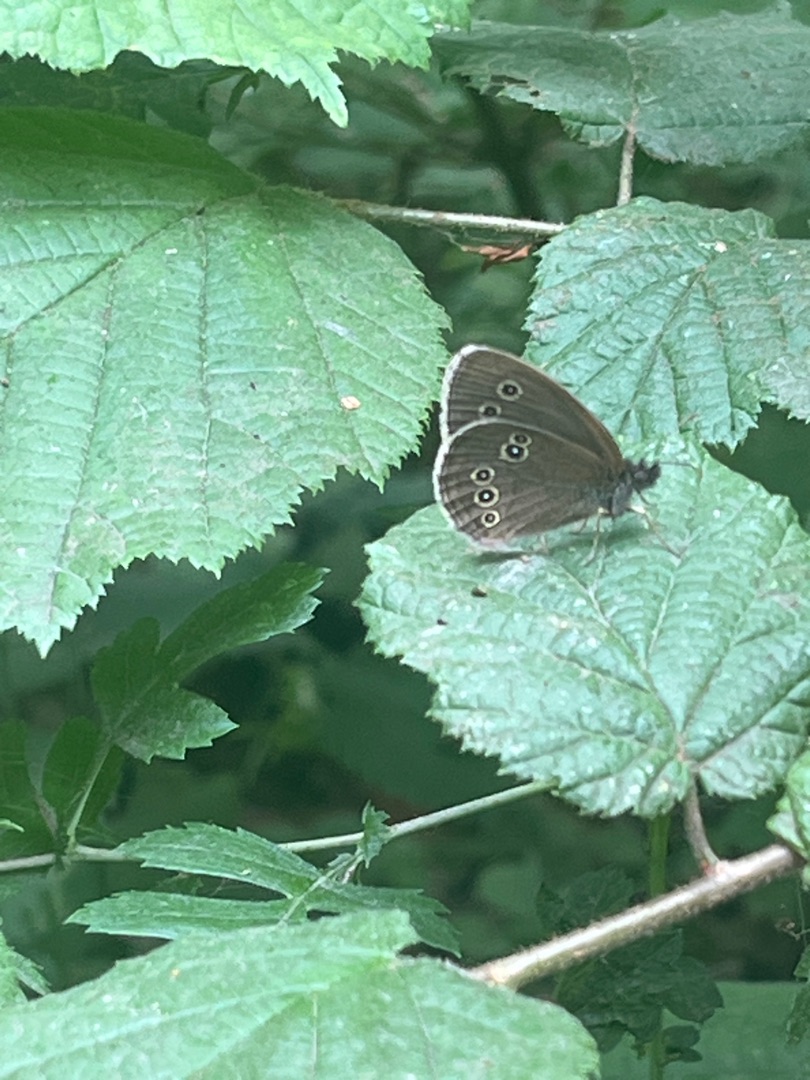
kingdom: Animalia
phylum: Arthropoda
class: Insecta
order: Lepidoptera
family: Nymphalidae
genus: Aphantopus
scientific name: Aphantopus hyperantus
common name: Engrandøje
